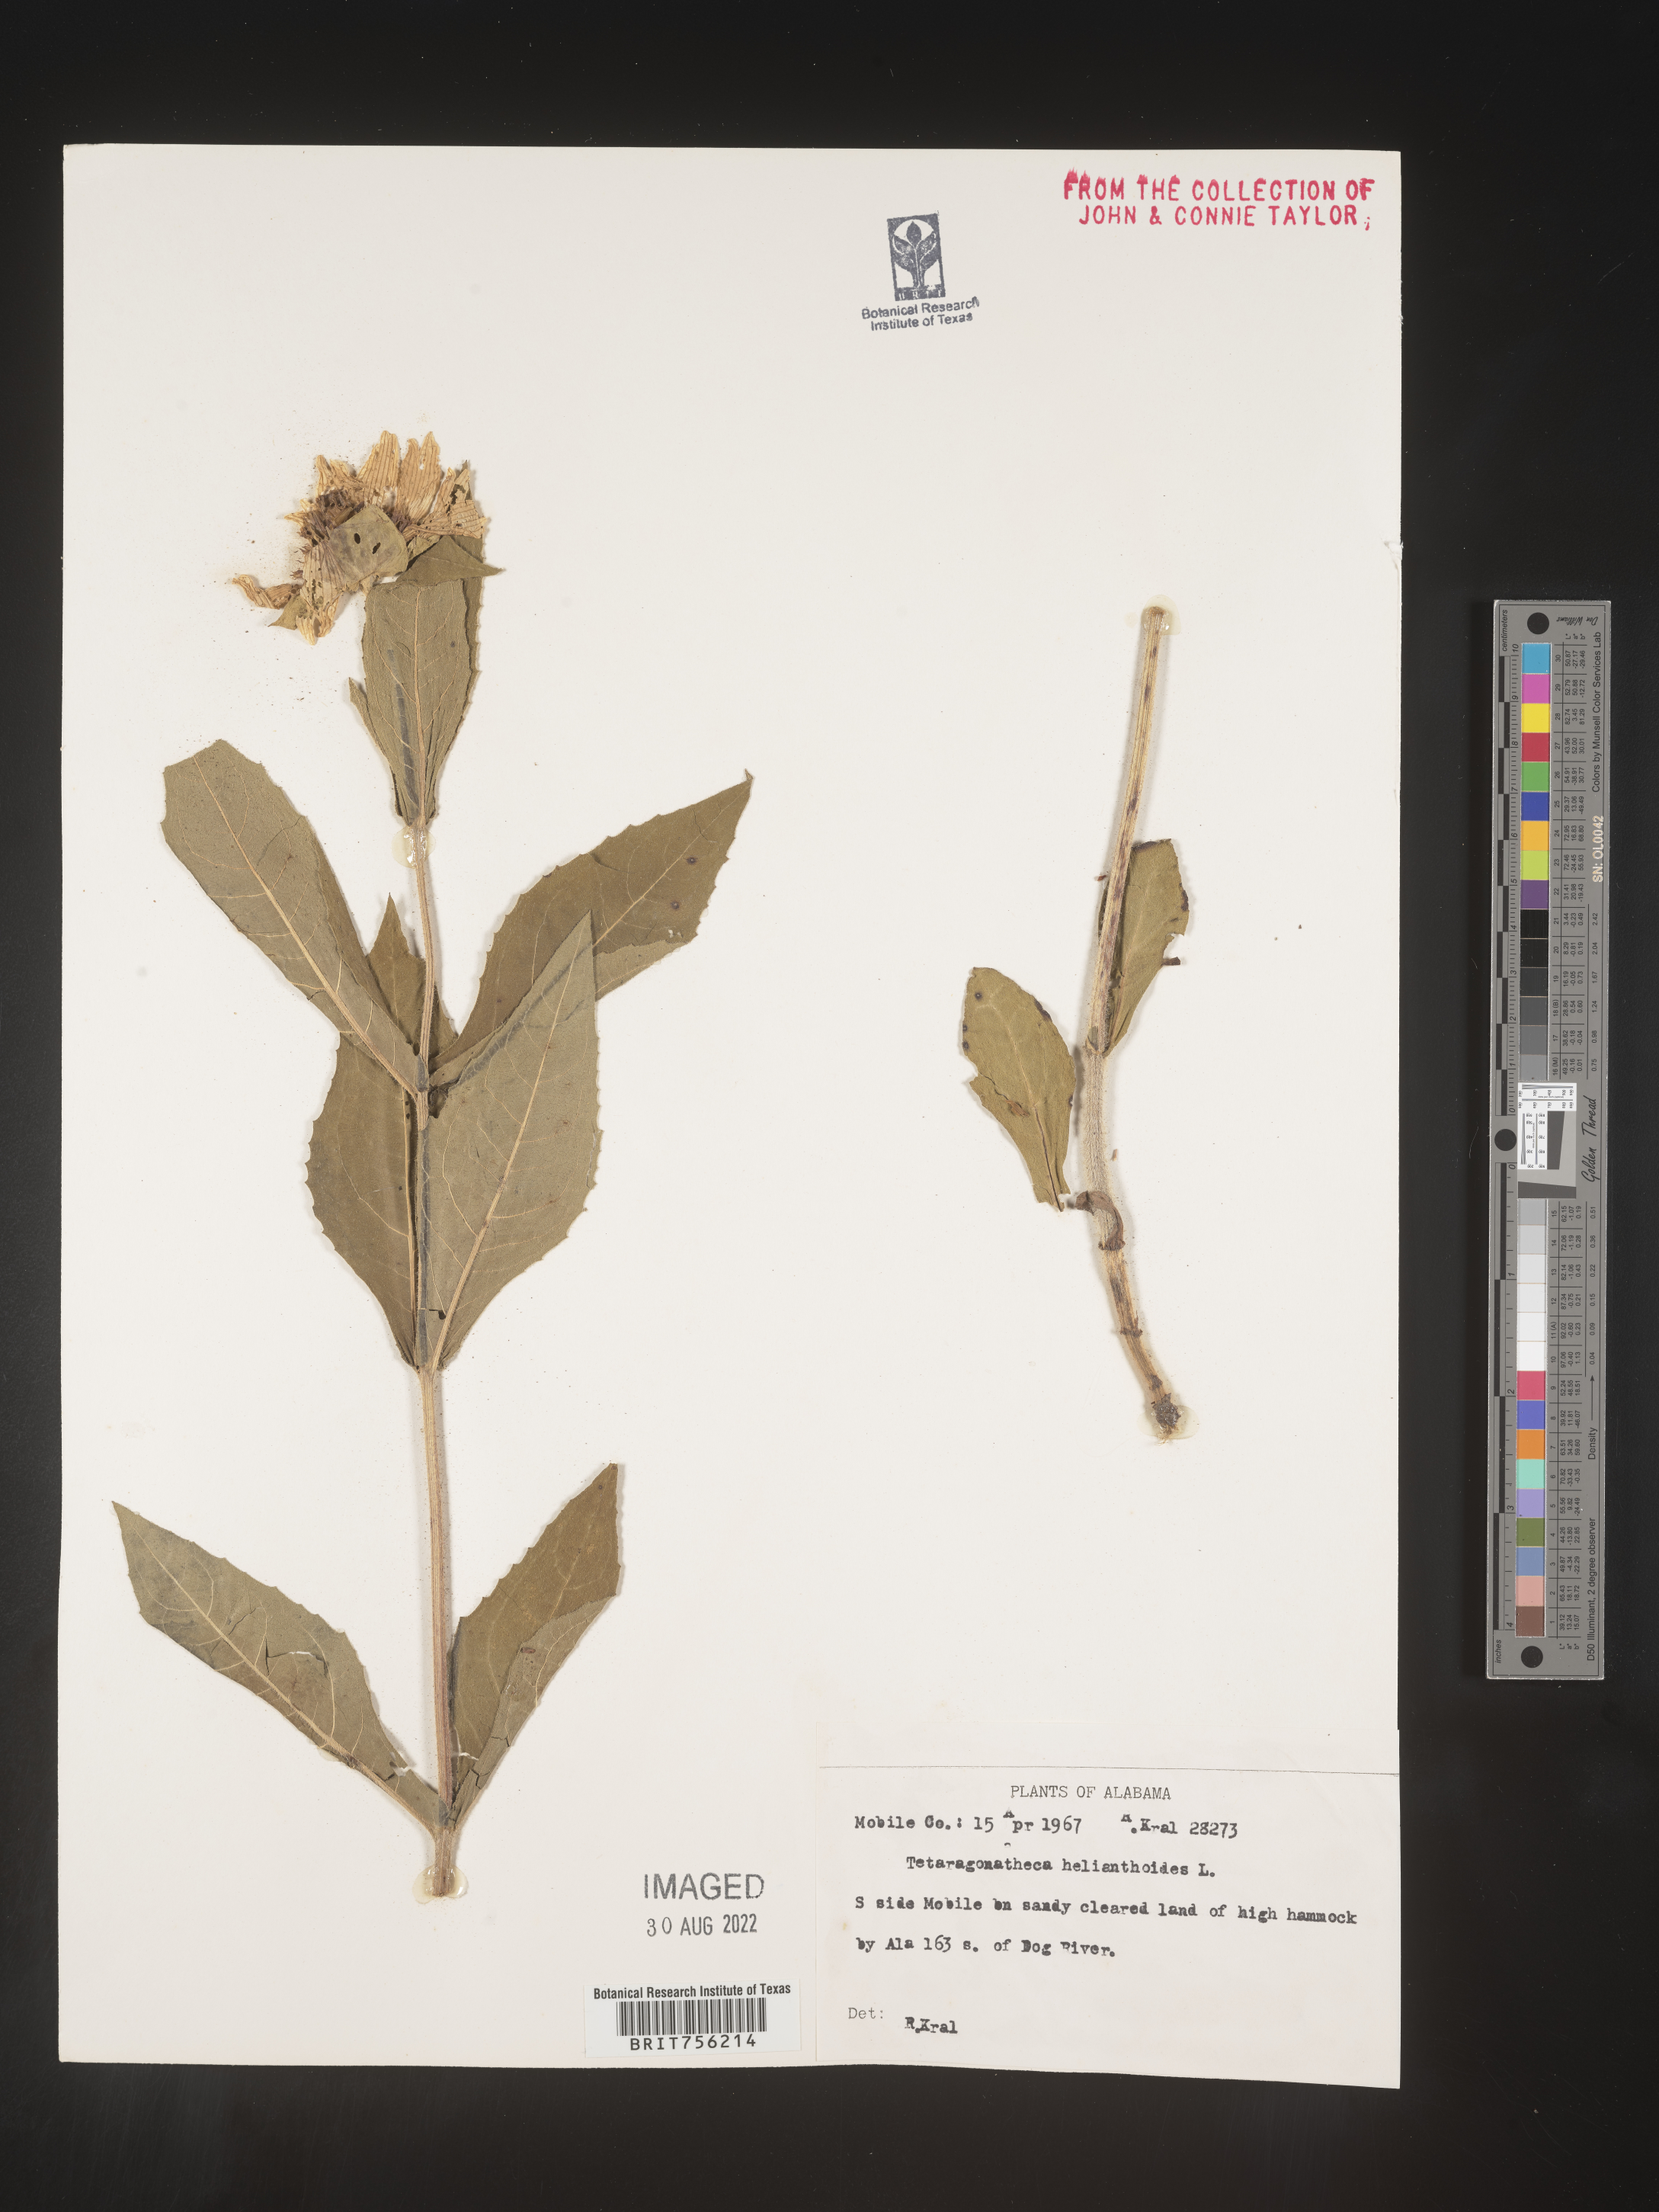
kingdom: Plantae
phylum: Tracheophyta
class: Magnoliopsida
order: Asterales
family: Asteraceae
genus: Tetragonotheca
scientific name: Tetragonotheca
